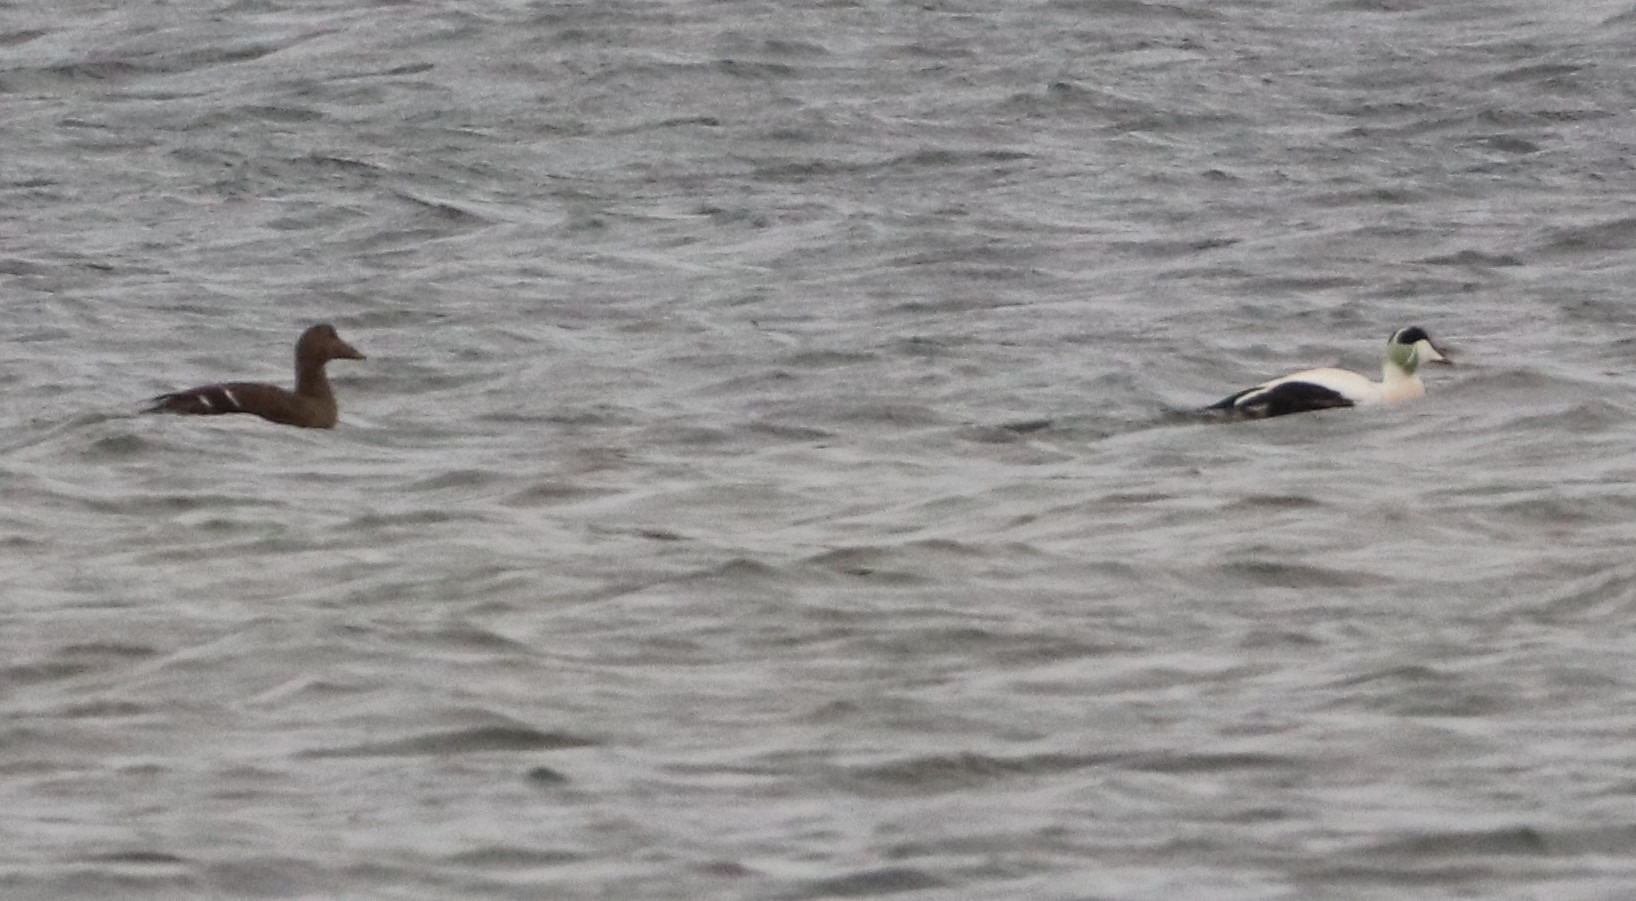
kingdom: Animalia
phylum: Chordata
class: Aves
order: Anseriformes
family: Anatidae
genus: Somateria
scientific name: Somateria mollissima
